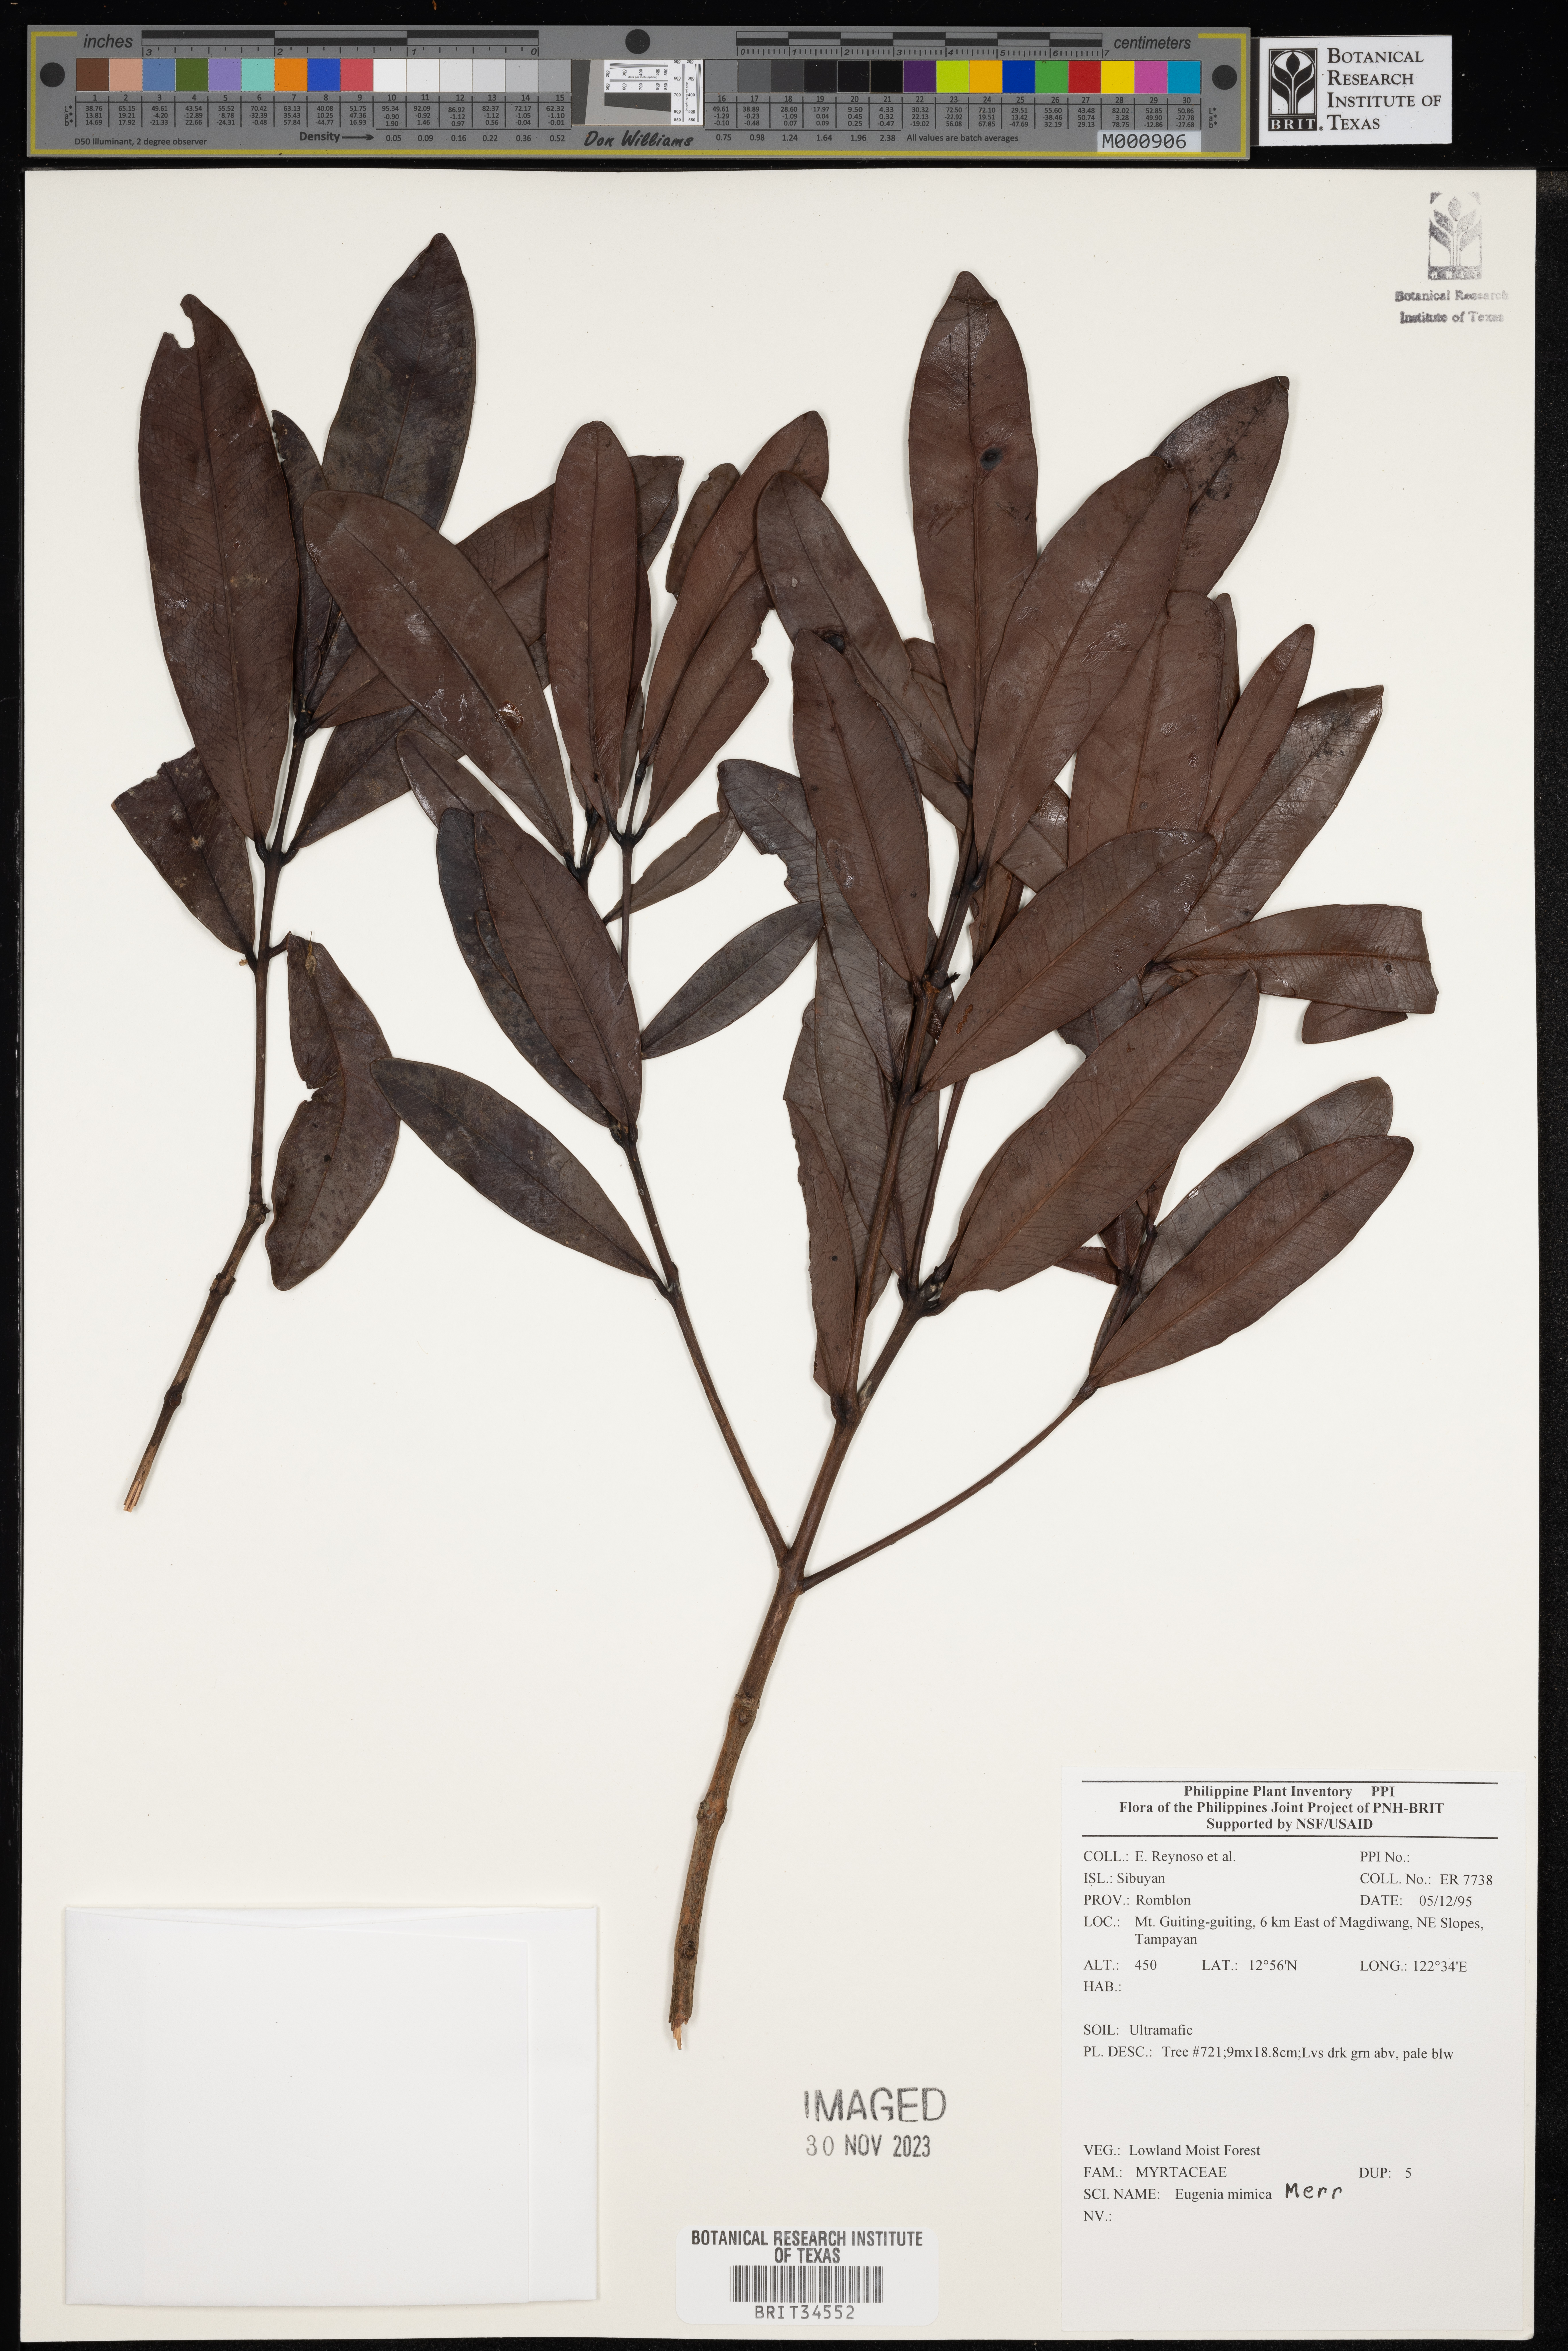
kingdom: Plantae
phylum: Tracheophyta
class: Magnoliopsida
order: Myrtales
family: Myrtaceae
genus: Eugenia
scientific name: Eugenia
